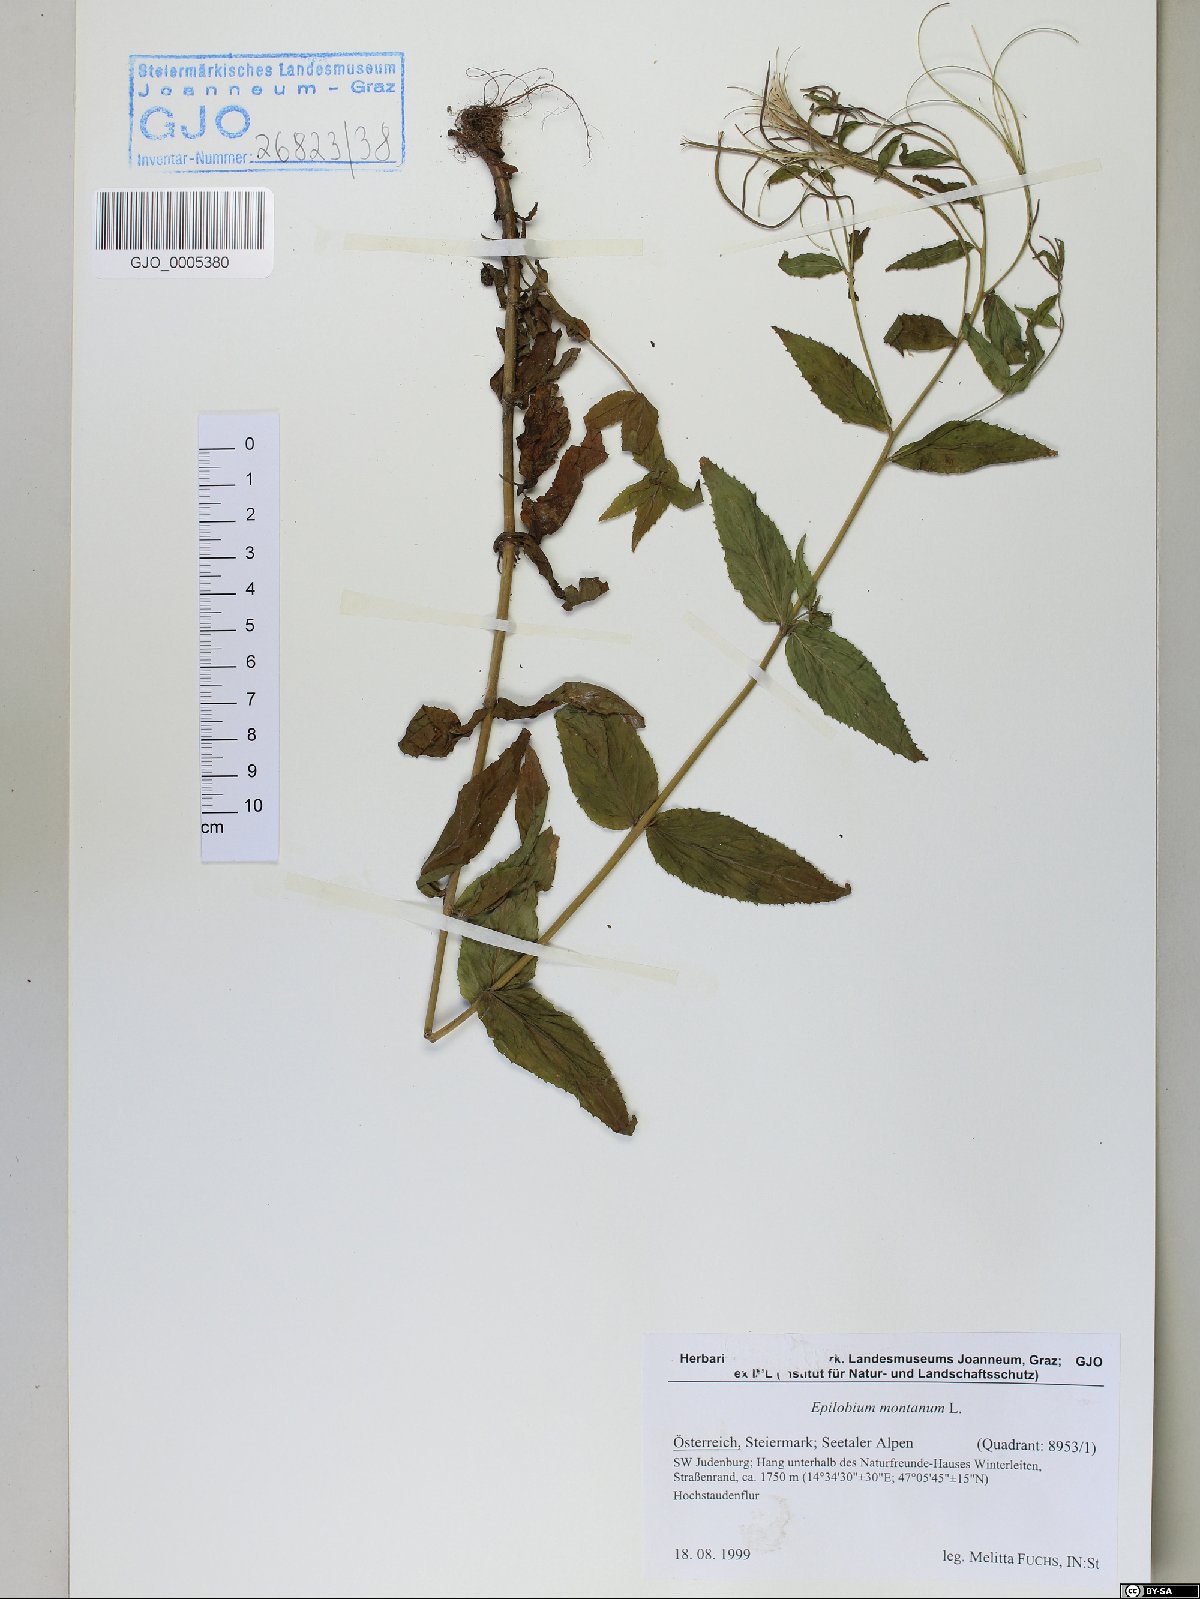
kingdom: Plantae
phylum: Tracheophyta
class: Magnoliopsida
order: Myrtales
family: Onagraceae
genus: Epilobium
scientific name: Epilobium montanum
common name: Broad-leaved willowherb
